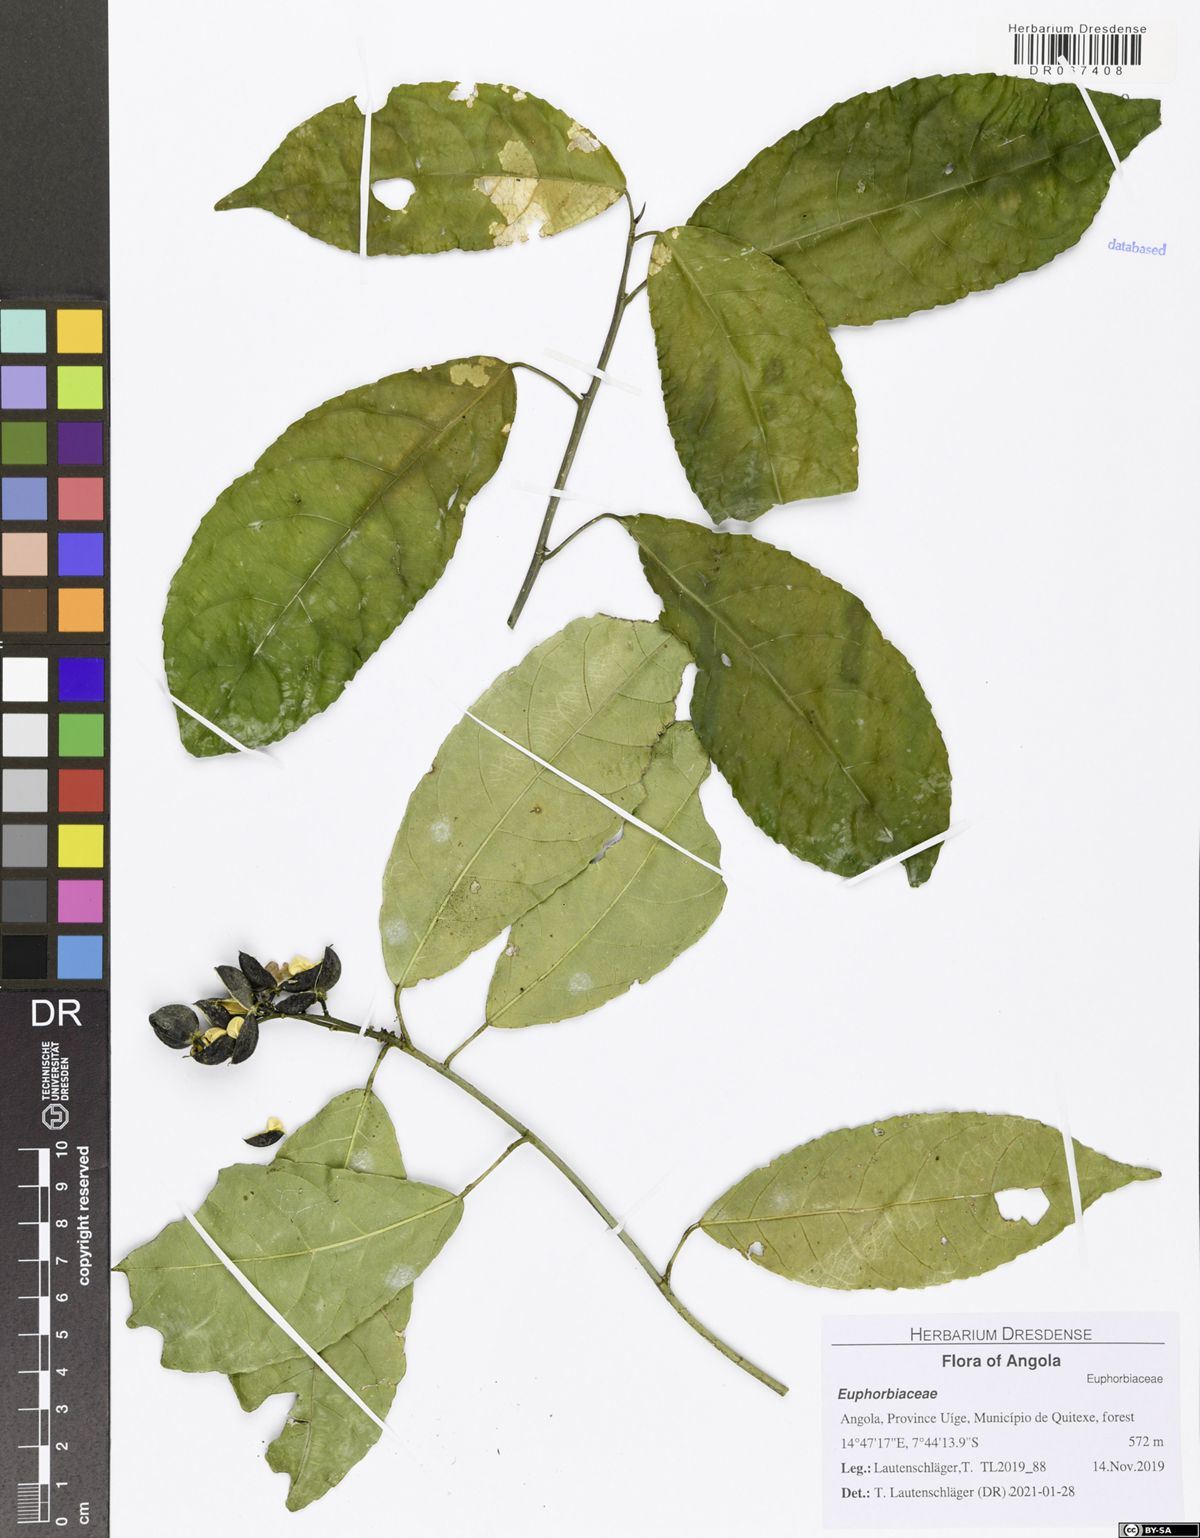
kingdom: Plantae
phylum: Tracheophyta
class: Magnoliopsida
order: Malpighiales
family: Euphorbiaceae
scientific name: Euphorbiaceae
